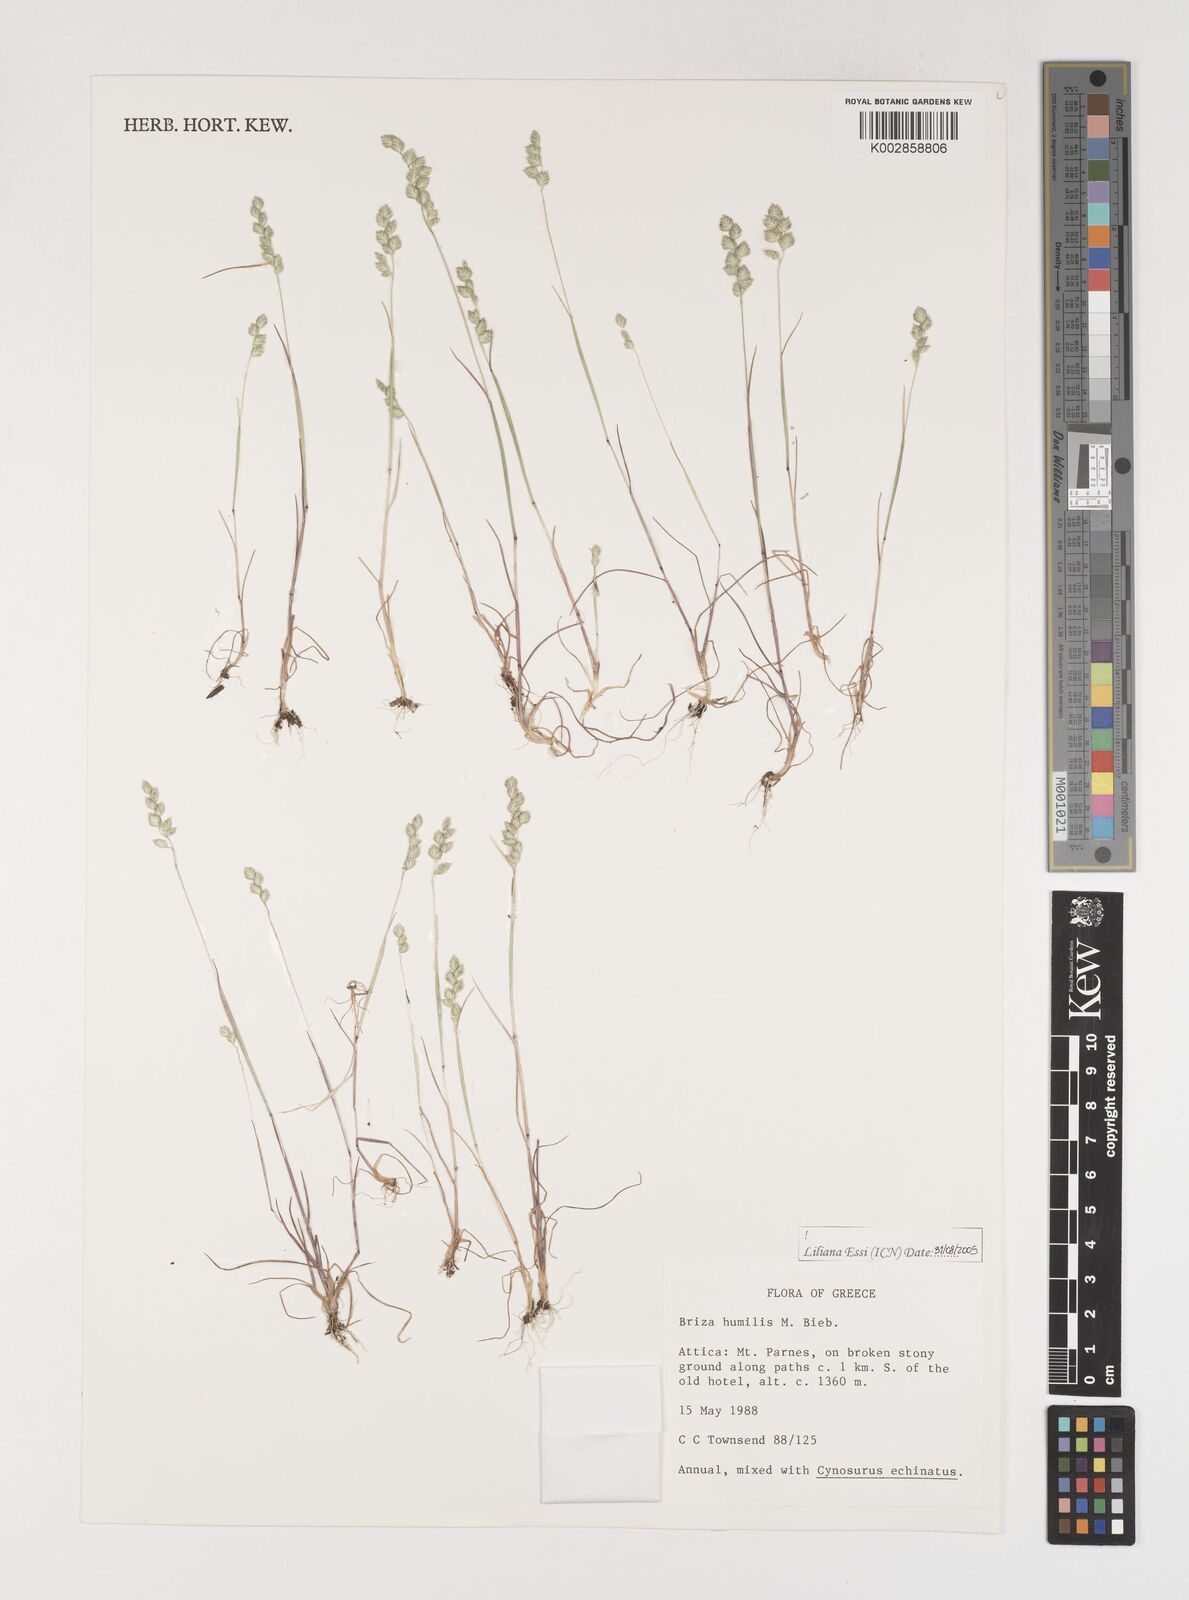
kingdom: Plantae
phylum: Tracheophyta
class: Liliopsida
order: Poales
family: Poaceae
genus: Briza
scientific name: Briza humilis
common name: Spiked quaking grass
